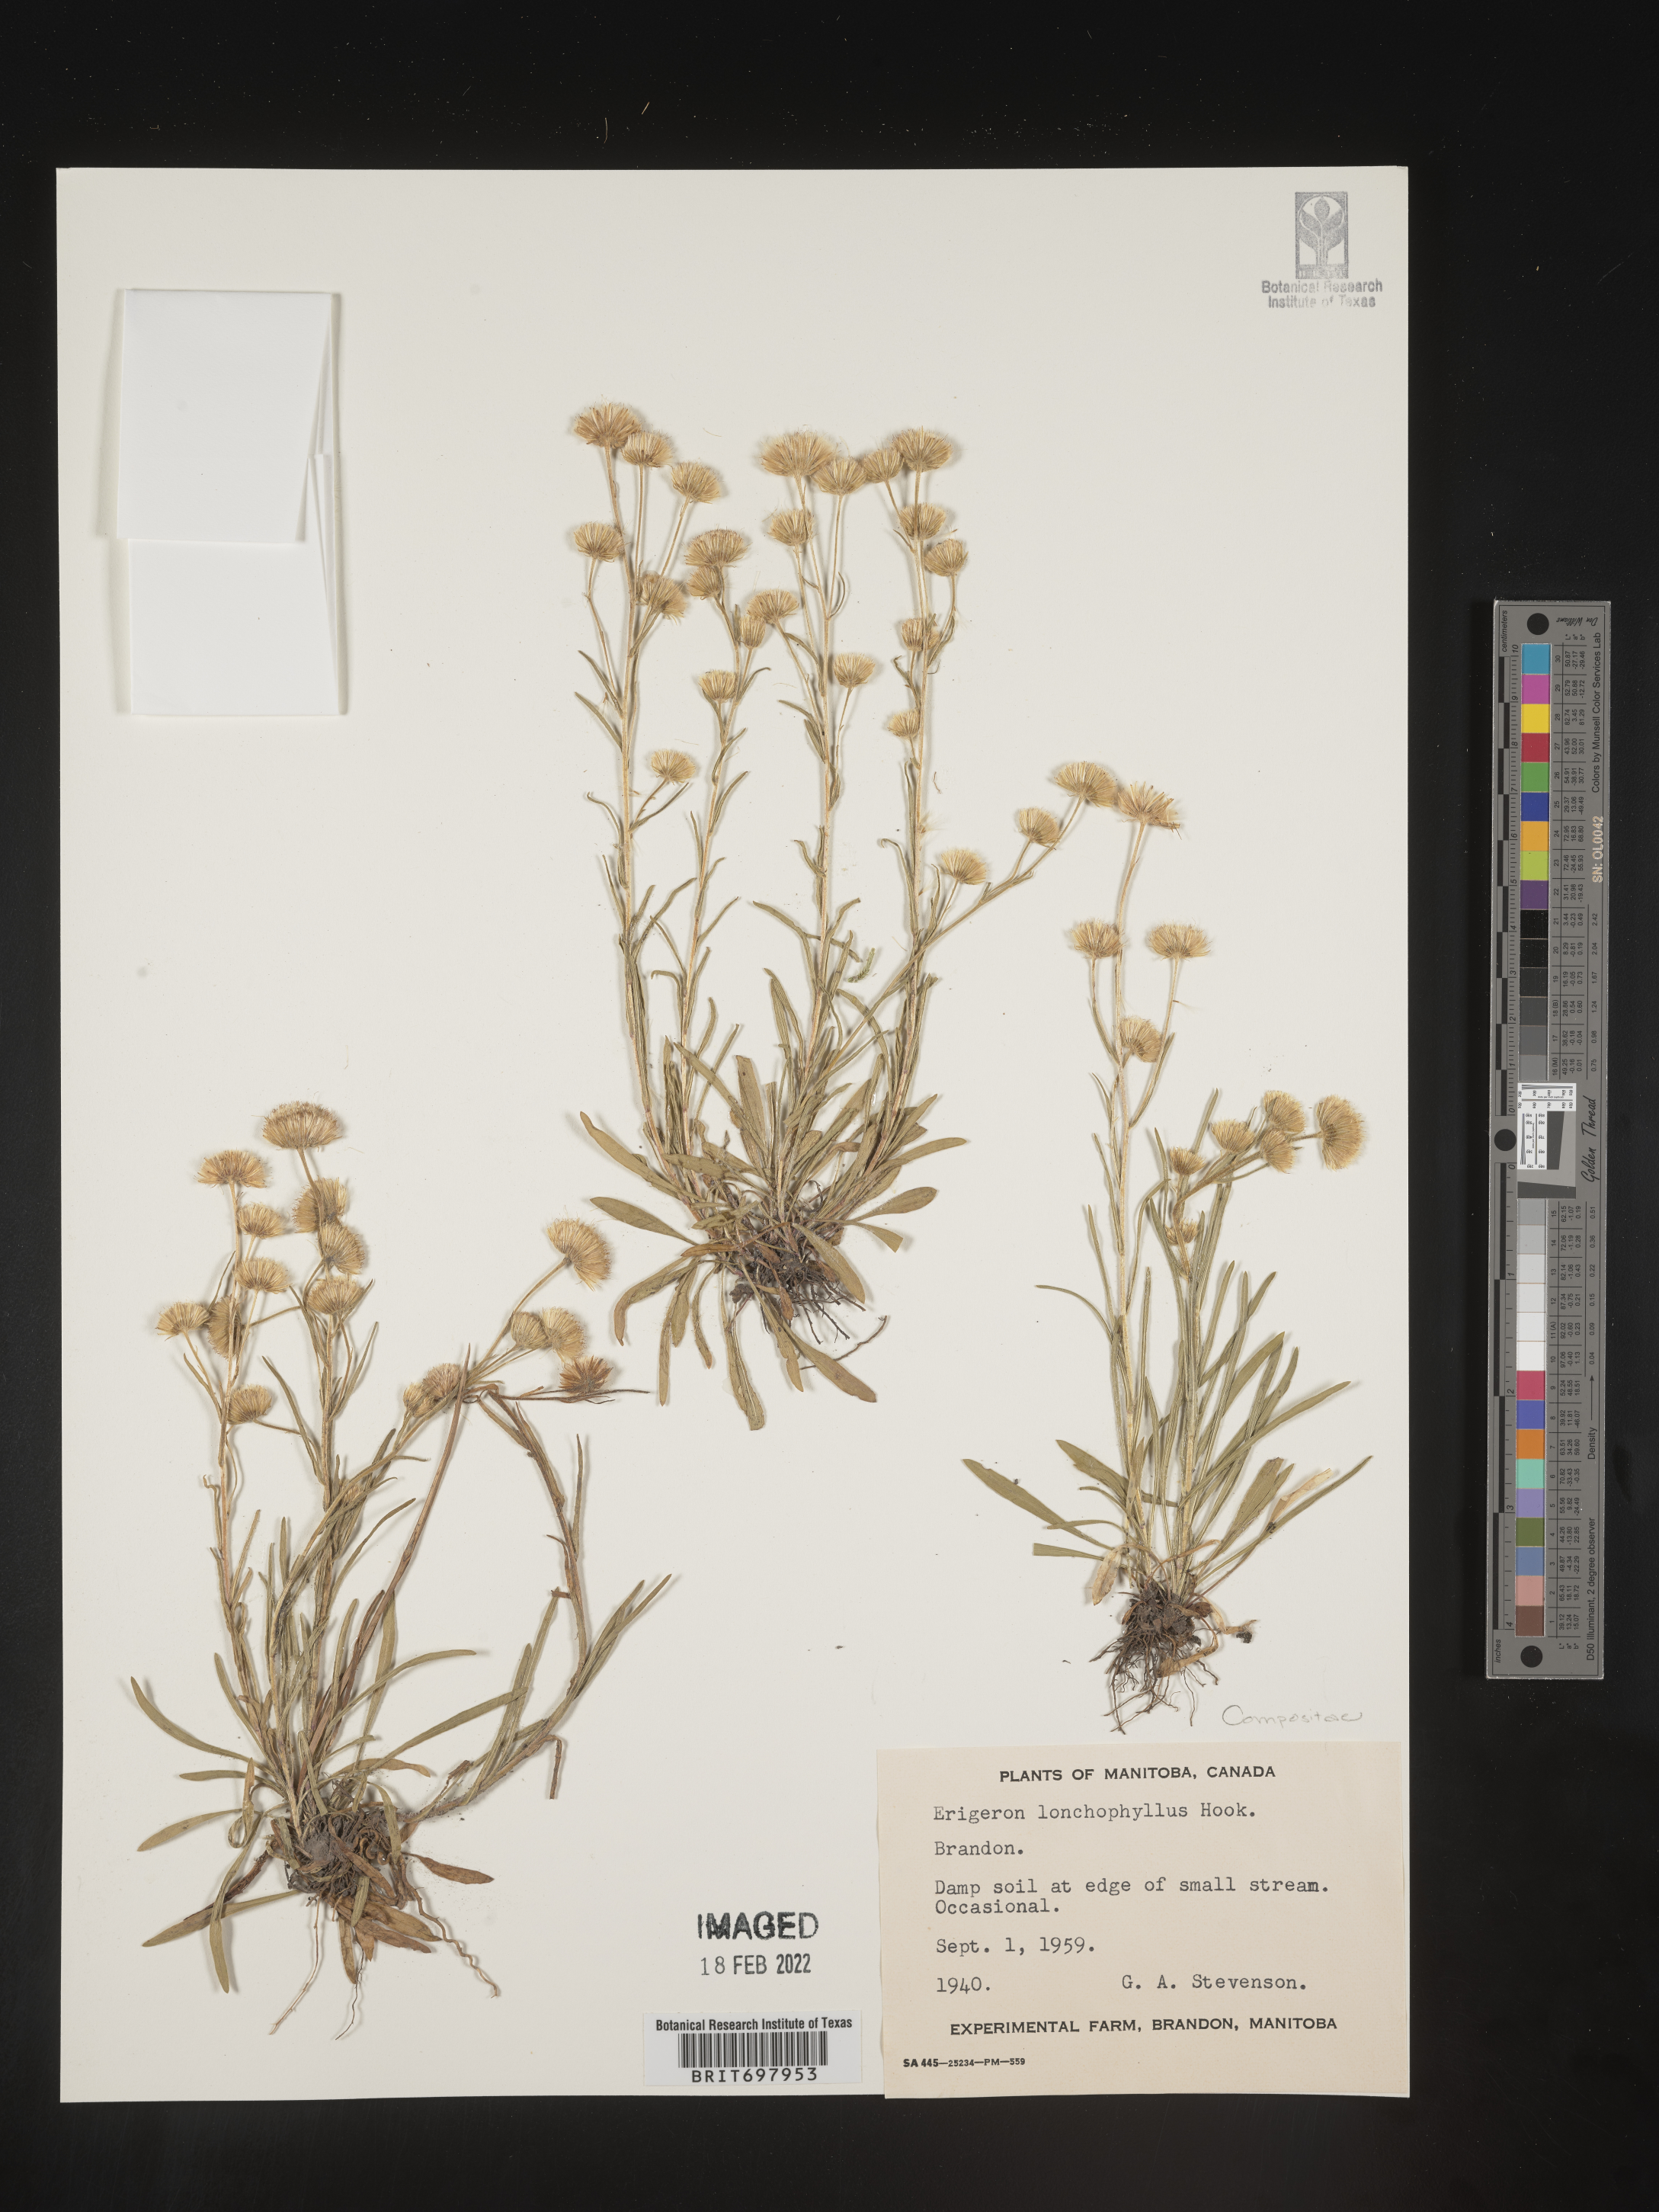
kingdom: Plantae
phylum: Tracheophyta
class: Magnoliopsida
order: Asterales
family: Asteraceae
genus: Erigeron
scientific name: Erigeron lonchophyllus
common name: Short-ray fleabane
